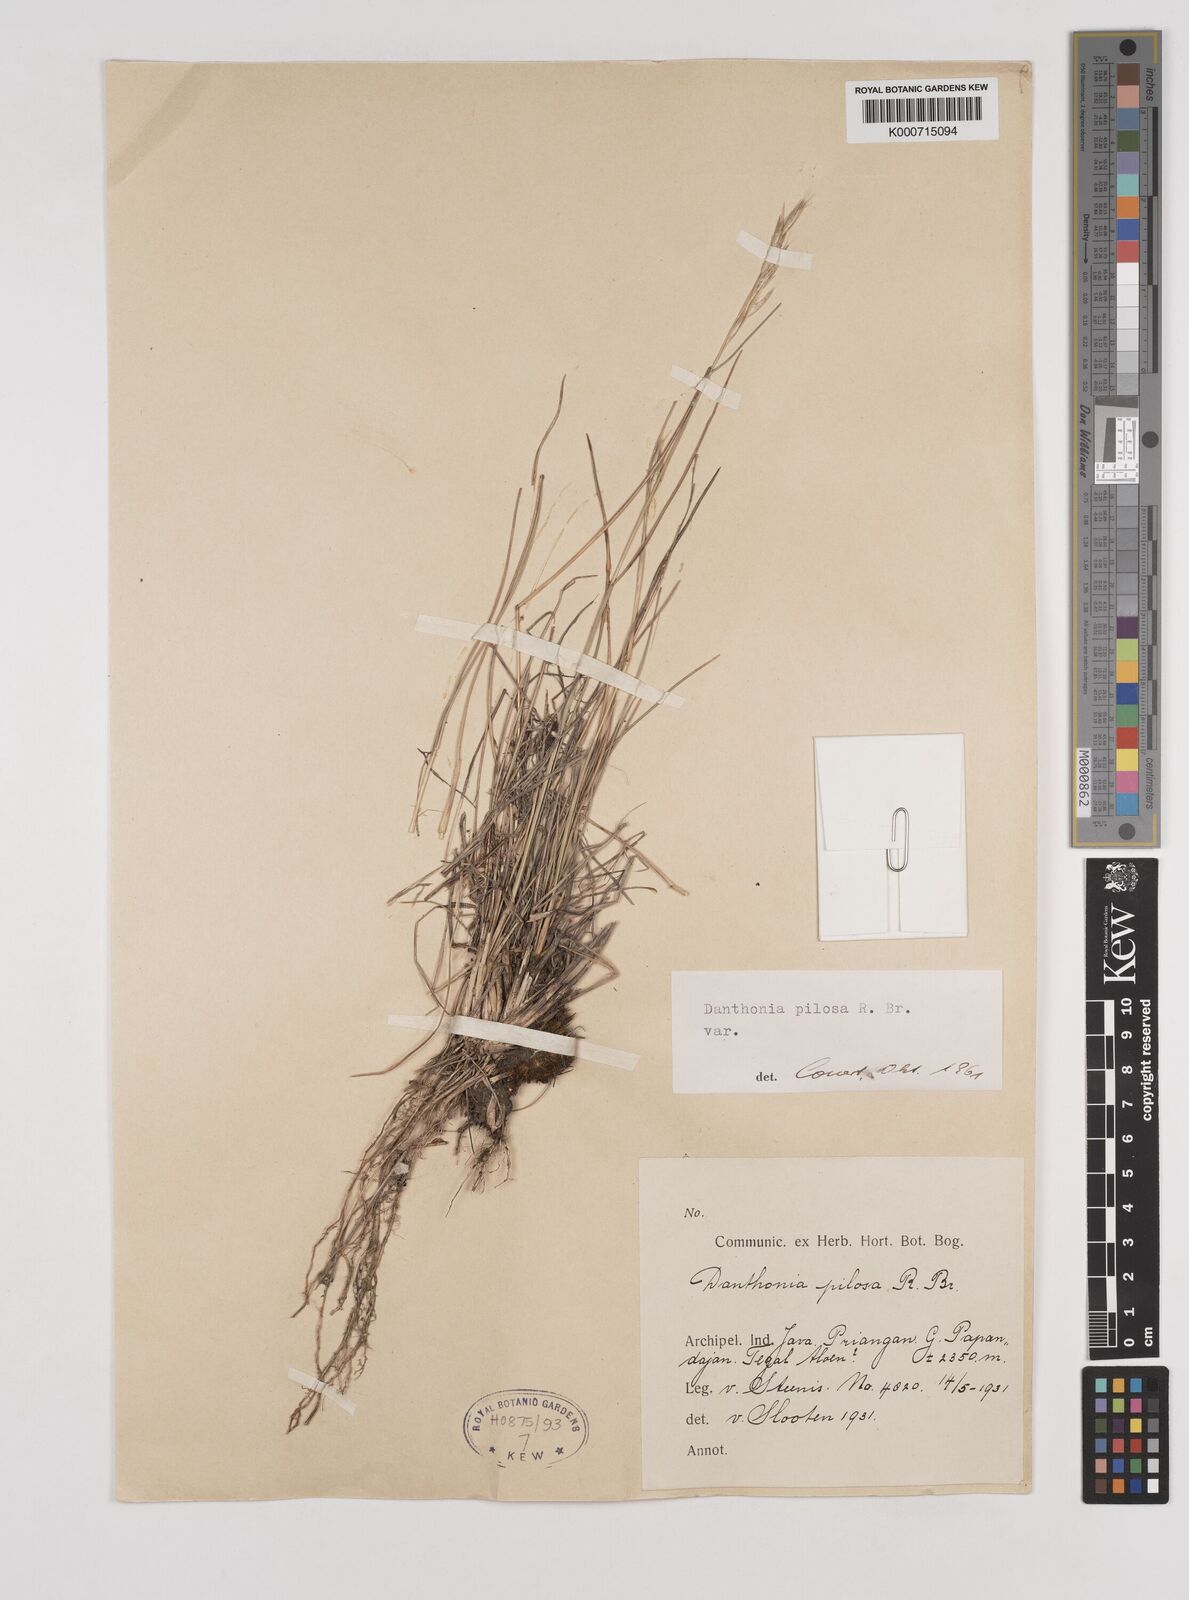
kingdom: Plantae
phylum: Tracheophyta
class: Liliopsida
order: Poales
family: Poaceae
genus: Rytidosperma
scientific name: Rytidosperma bonthainicum
